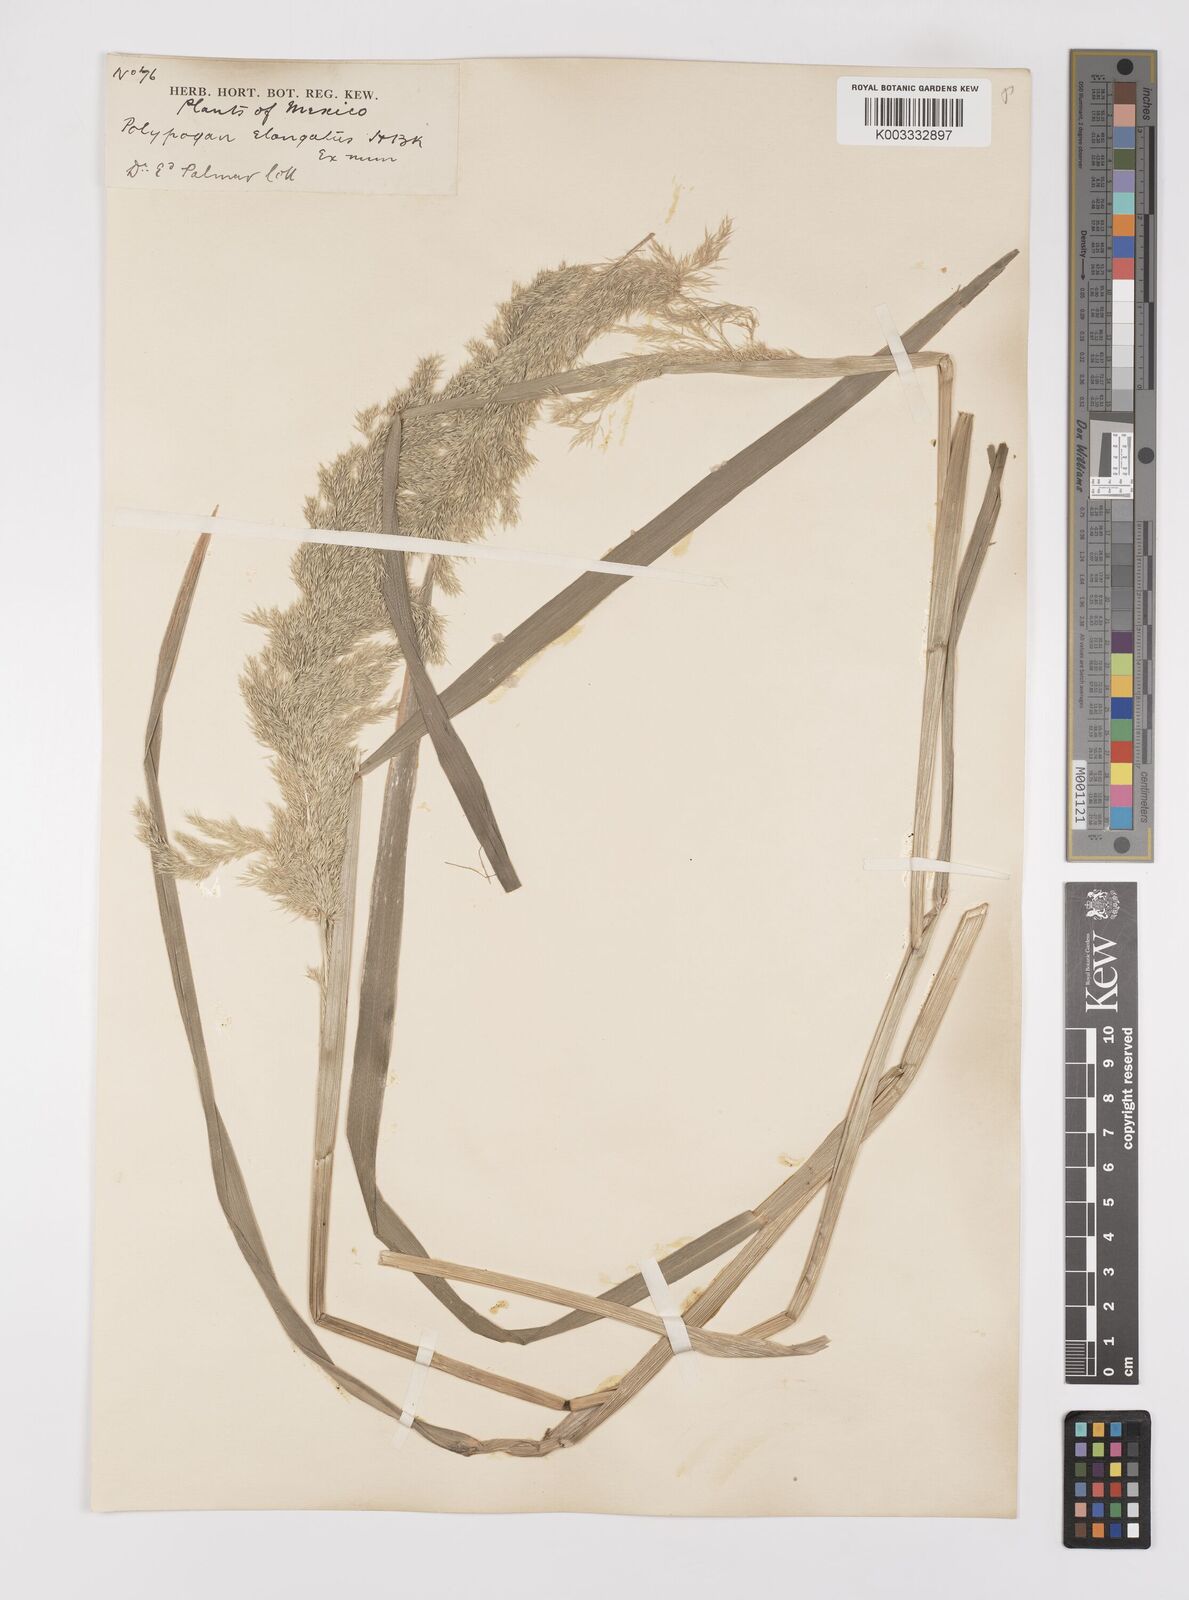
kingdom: Plantae
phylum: Tracheophyta
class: Liliopsida
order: Poales
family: Poaceae
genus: Polypogon
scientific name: Polypogon elongatus
